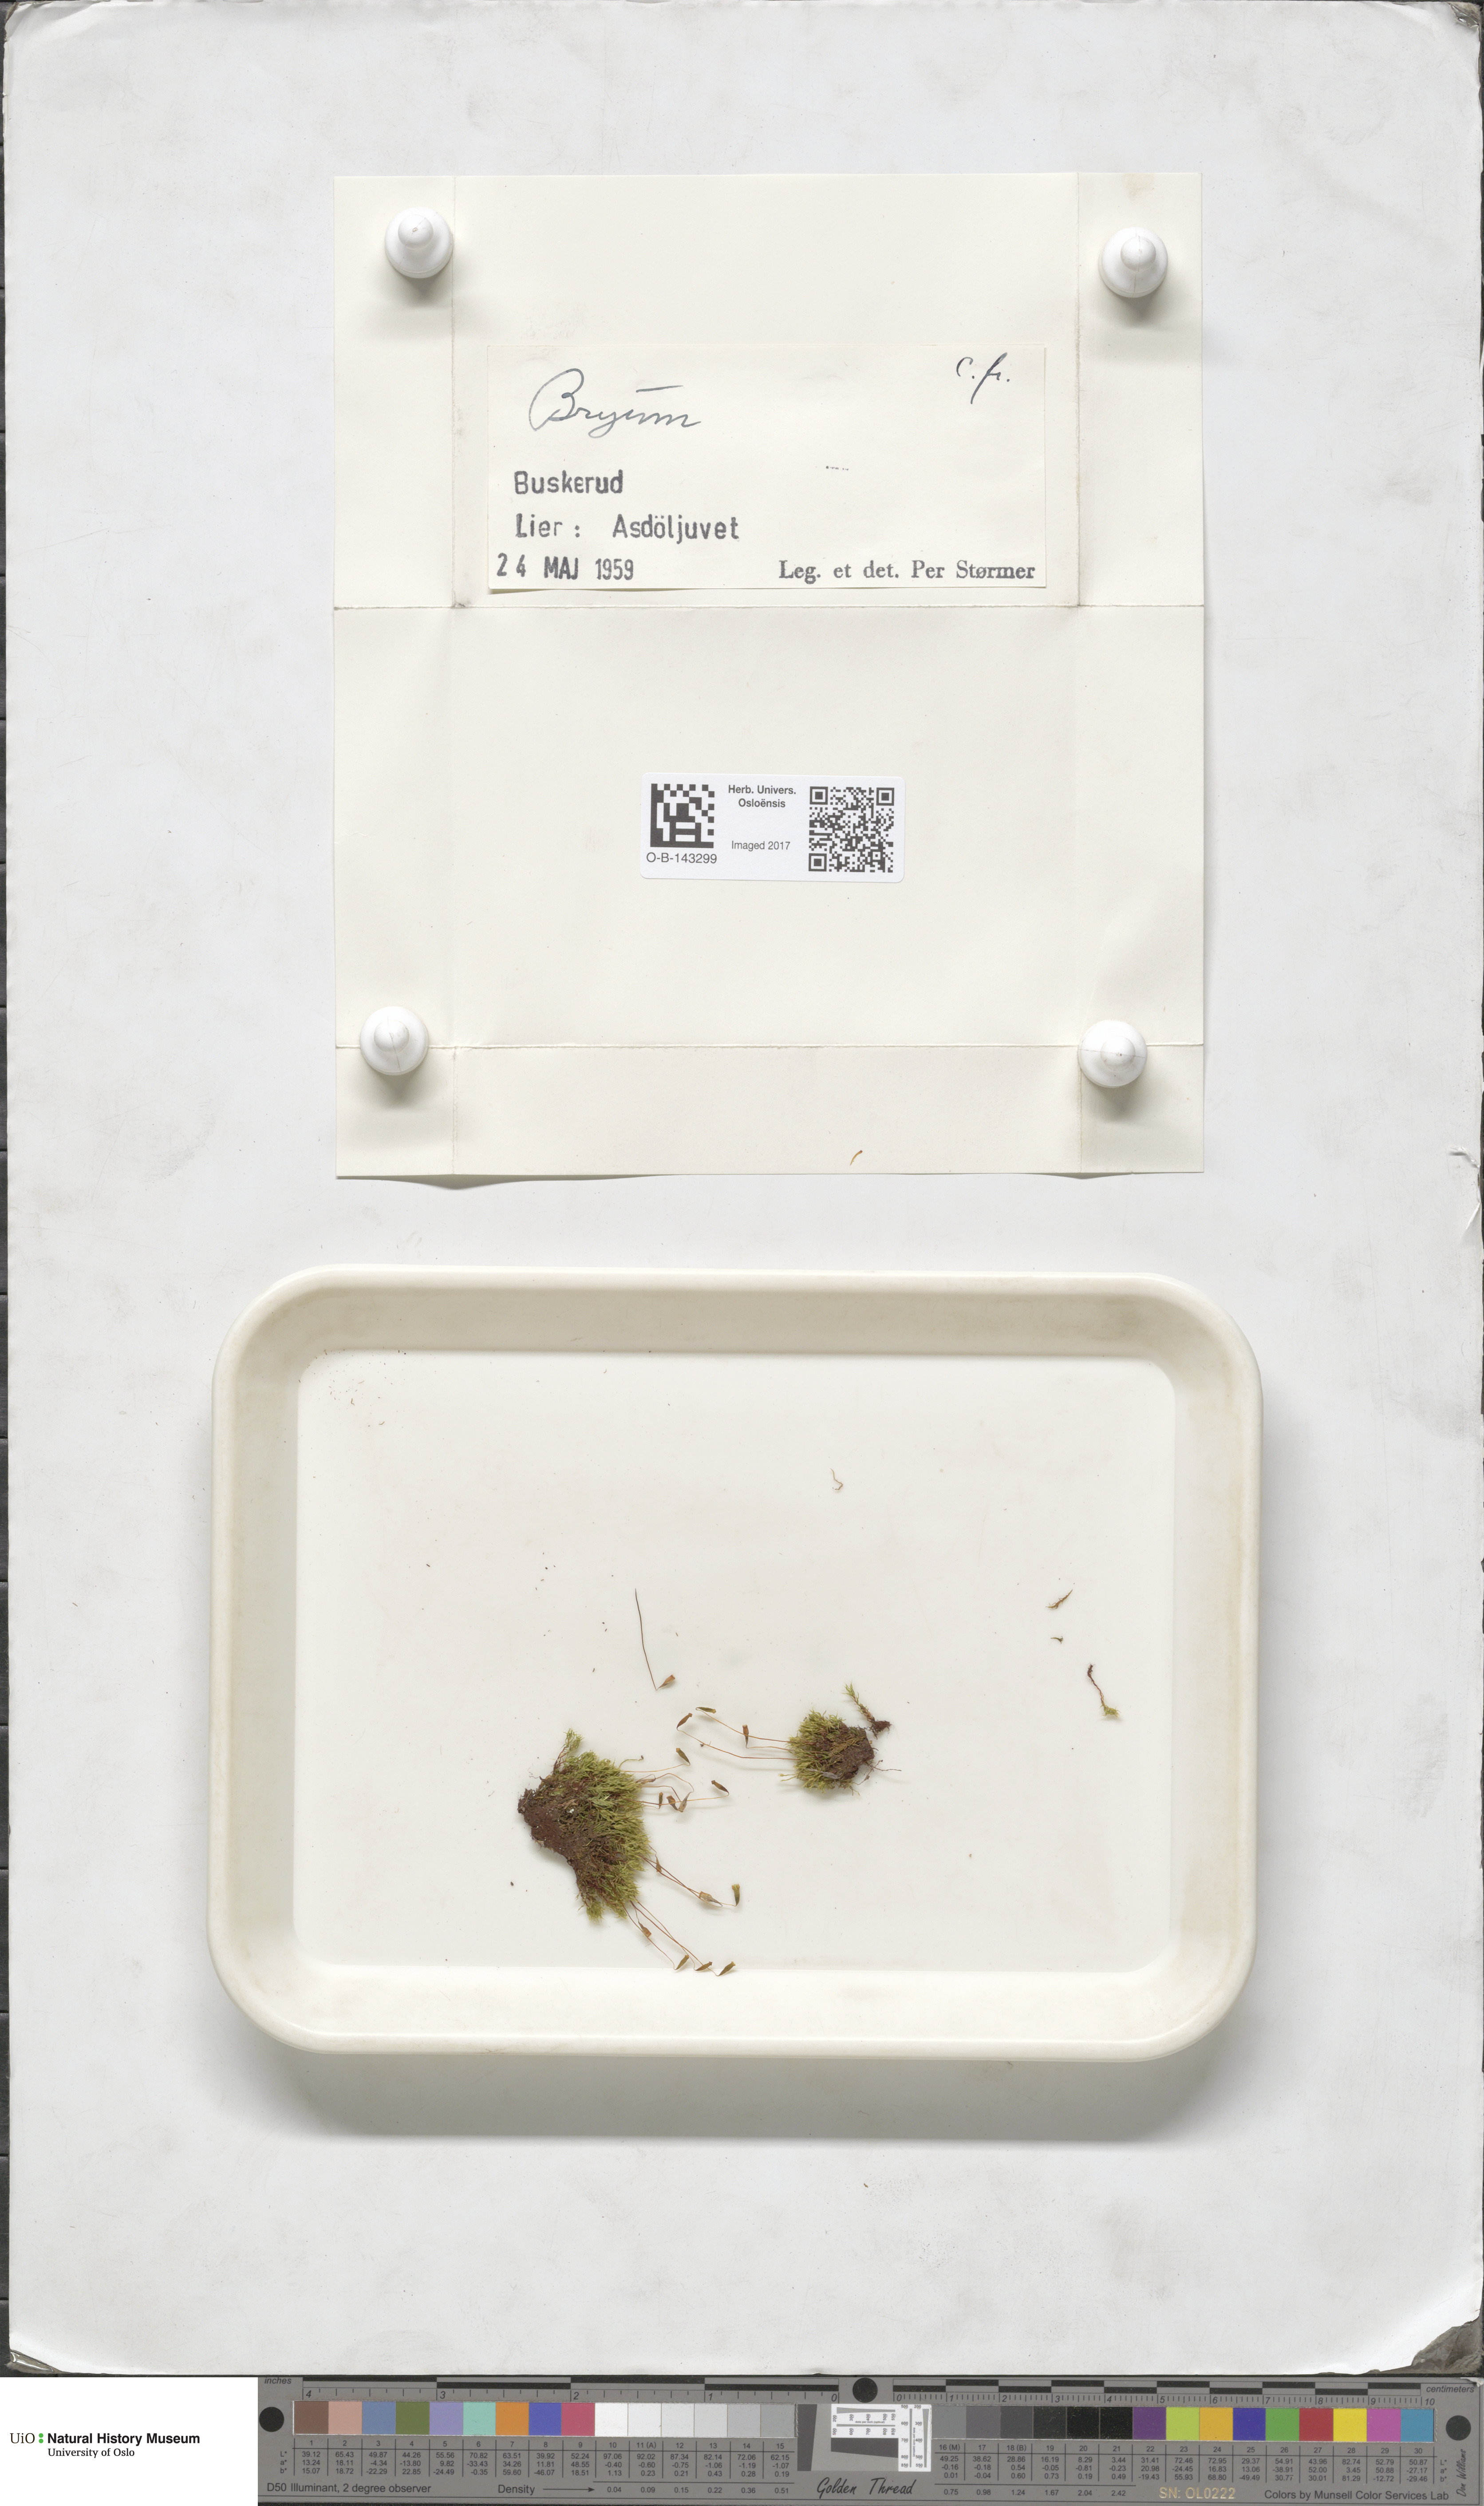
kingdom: Plantae
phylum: Bryophyta
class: Bryopsida
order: Bryales
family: Bryaceae
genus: Bryum
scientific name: Bryum
